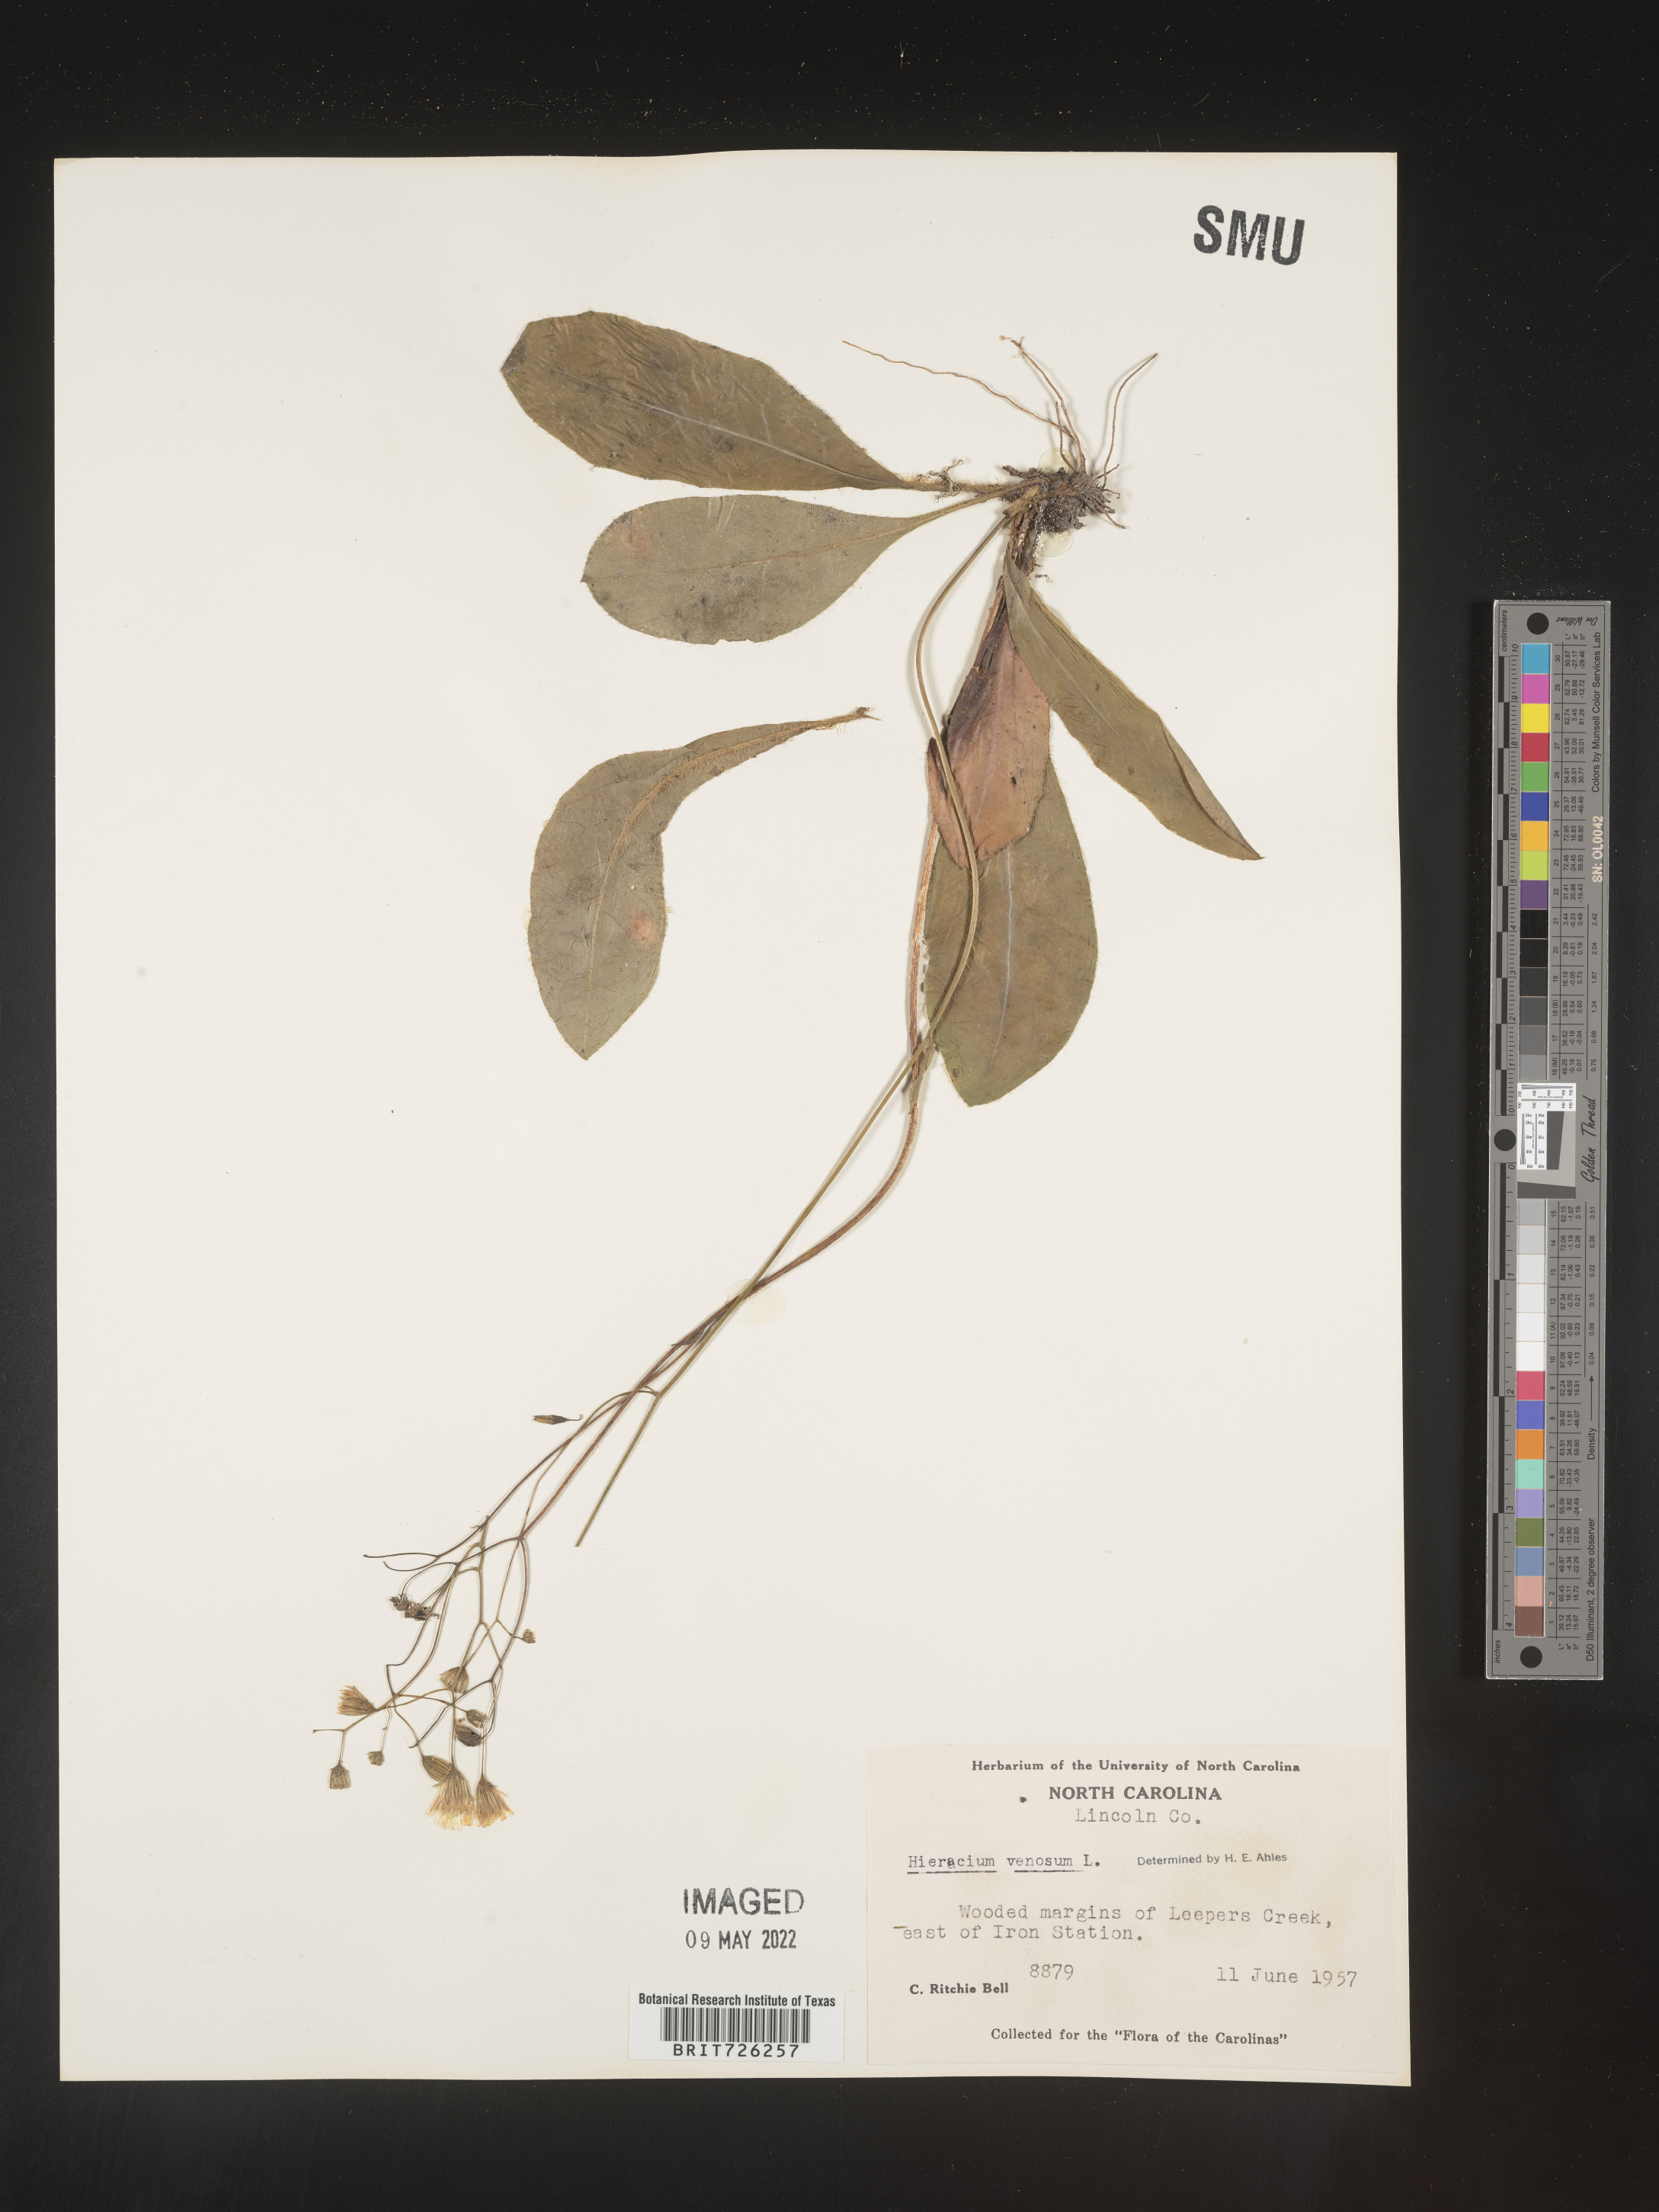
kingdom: Plantae
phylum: Tracheophyta
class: Magnoliopsida
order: Asterales
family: Asteraceae
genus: Hieracium
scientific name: Hieracium
